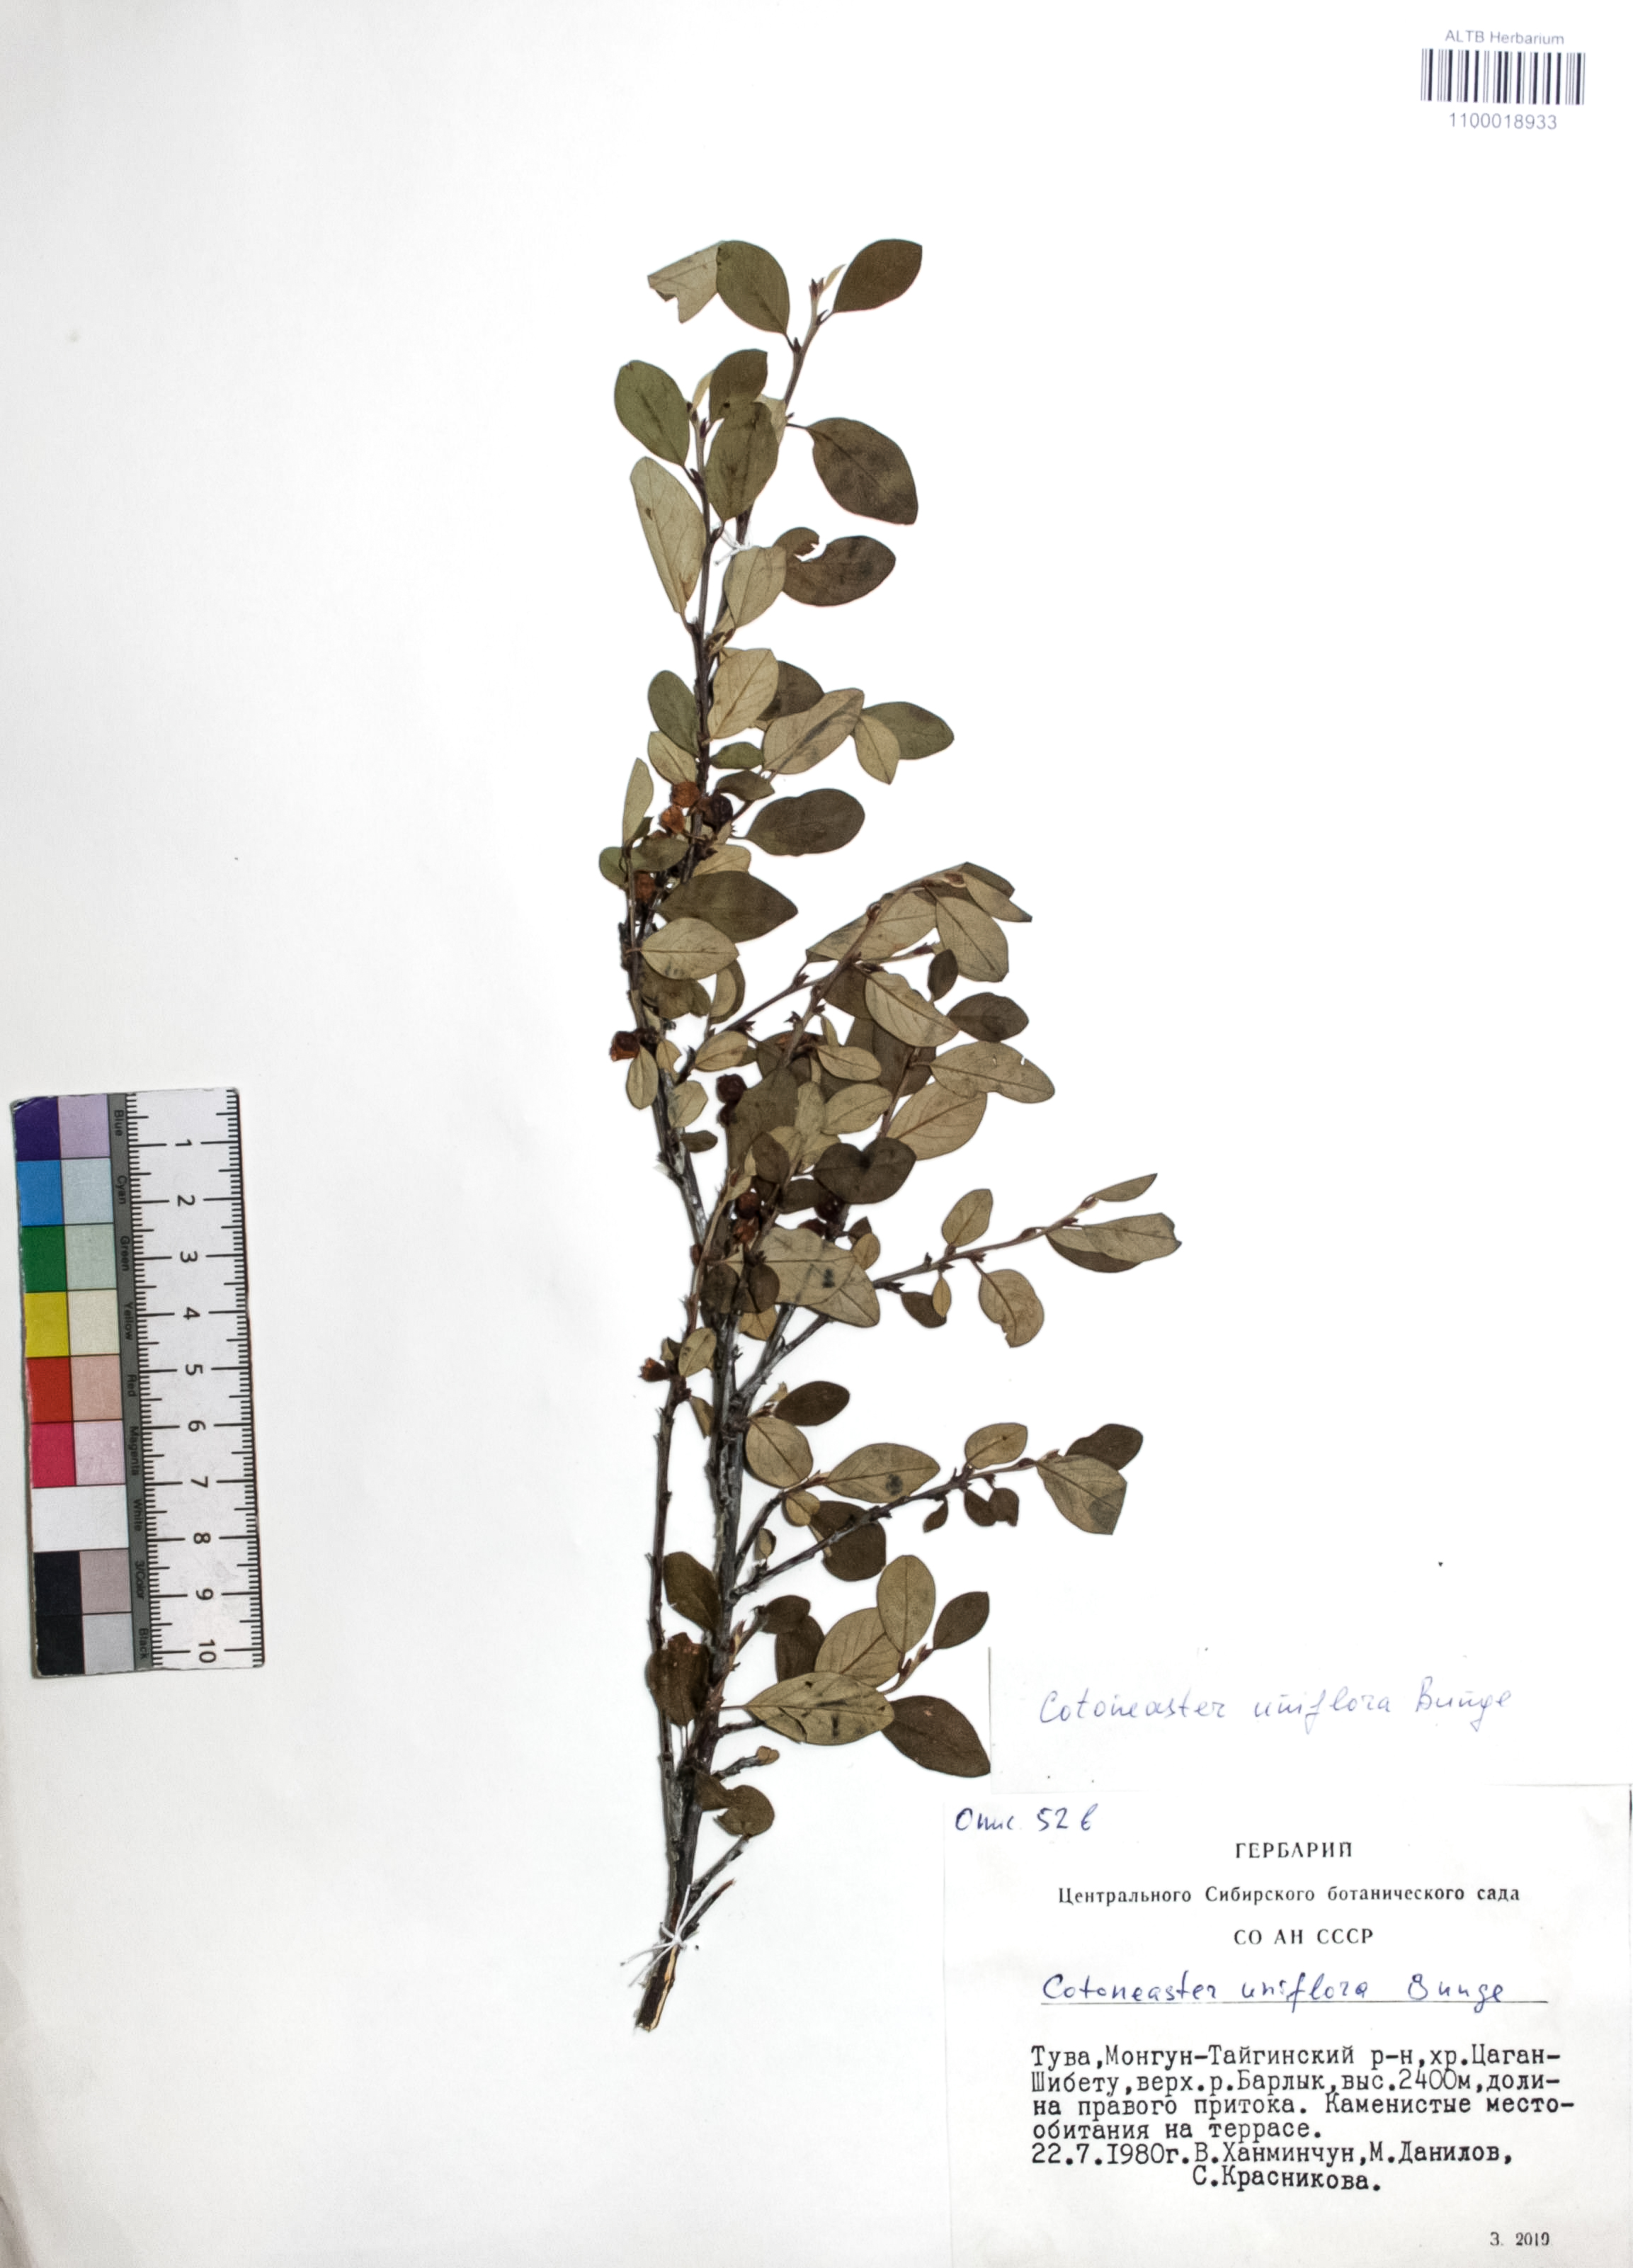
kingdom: Plantae
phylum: Tracheophyta
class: Magnoliopsida
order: Rosales
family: Rosaceae
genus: Cotoneaster
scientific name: Cotoneaster uniflorus
